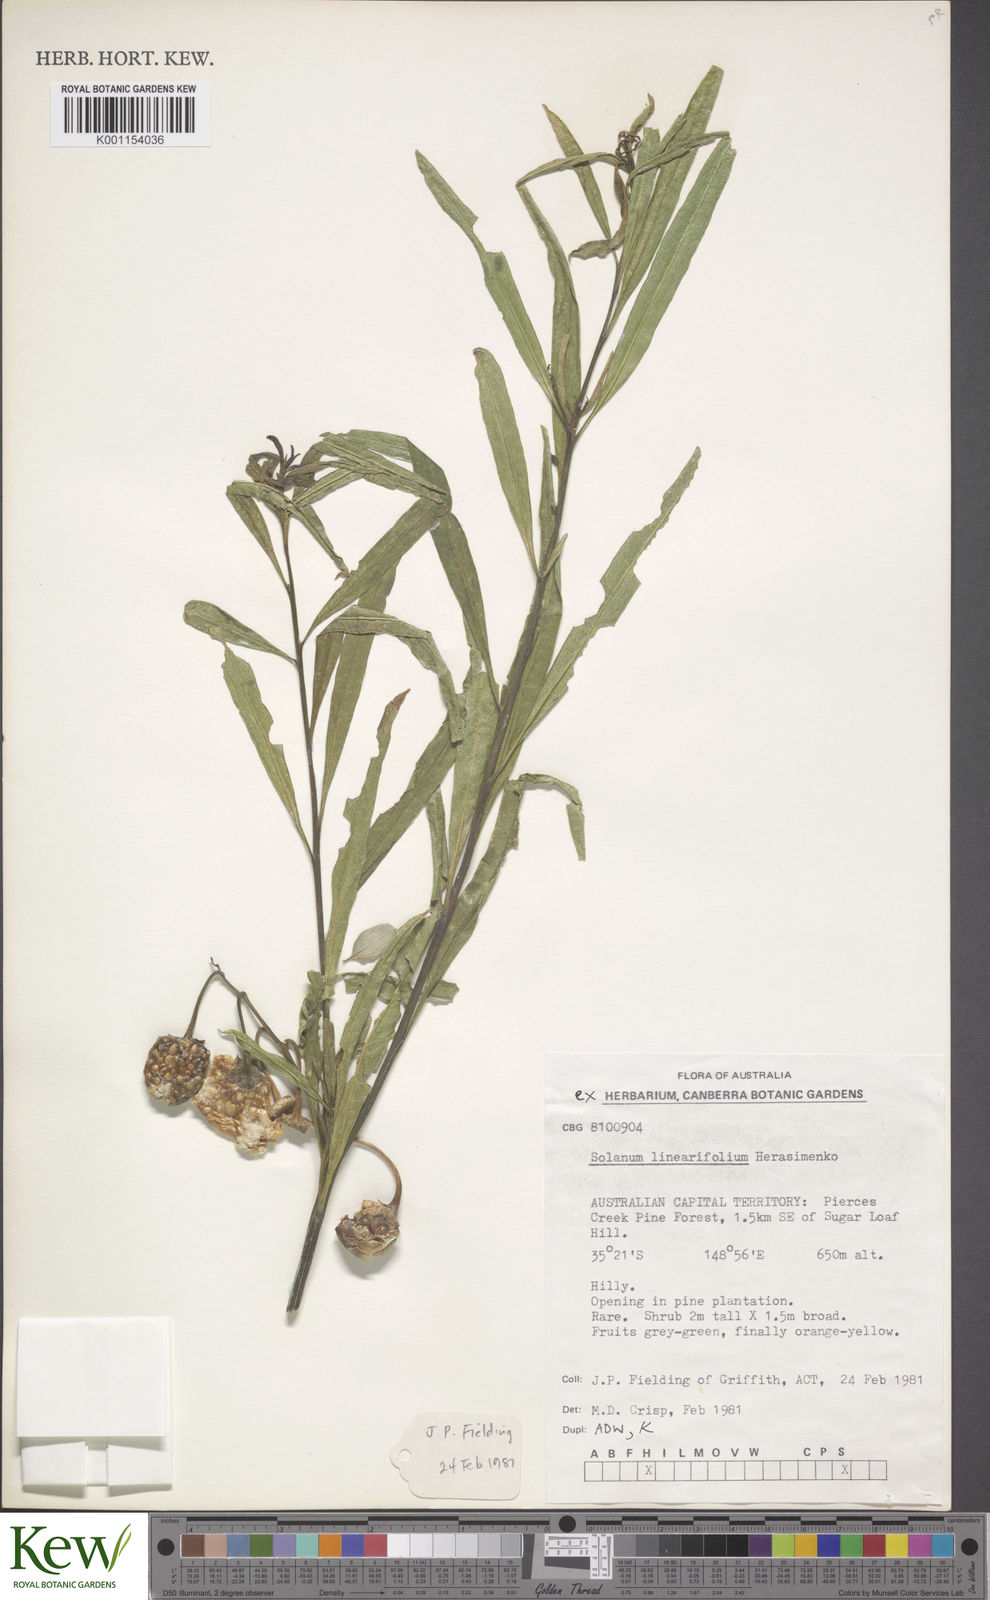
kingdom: Plantae
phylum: Tracheophyta
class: Magnoliopsida
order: Solanales
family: Solanaceae
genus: Solanum
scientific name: Solanum linearifolium
